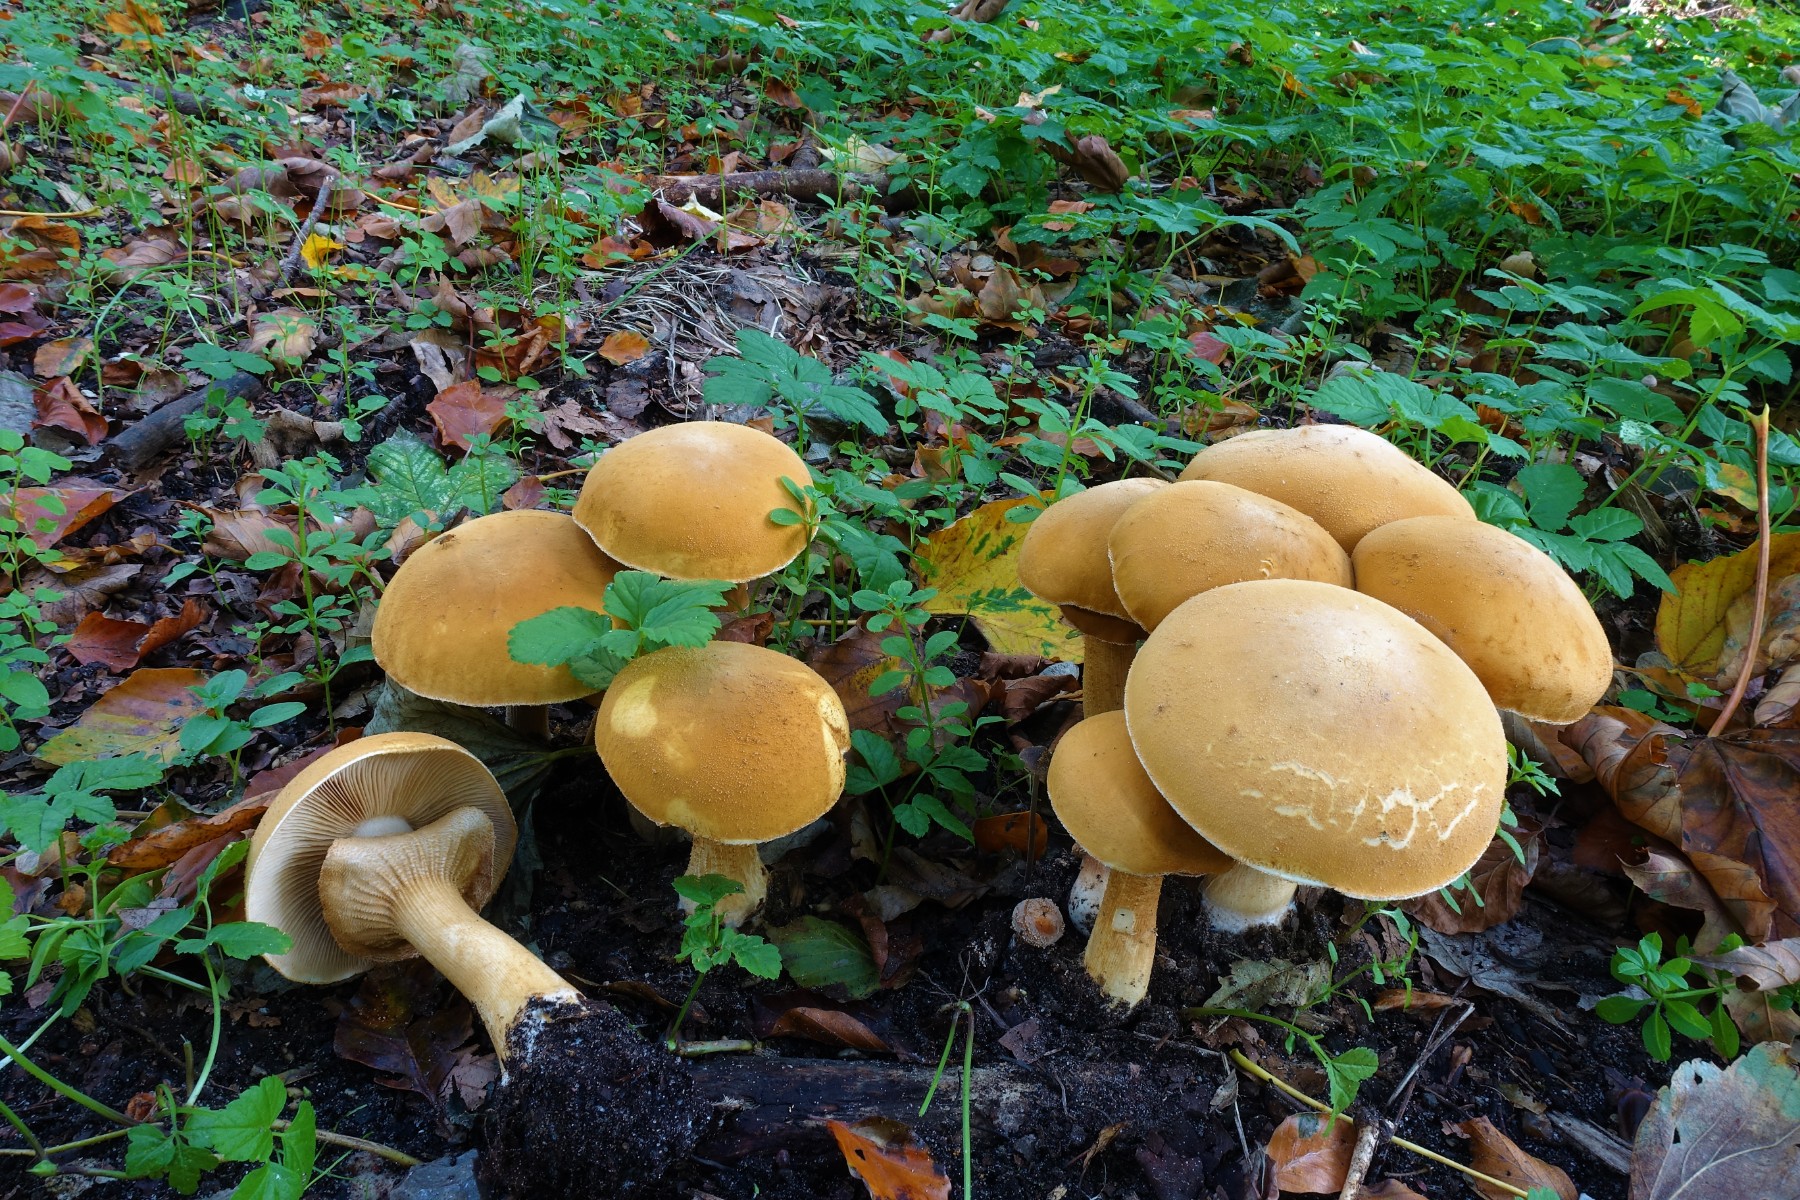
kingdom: Fungi
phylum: Basidiomycota
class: Agaricomycetes
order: Agaricales
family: Tricholomataceae
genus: Phaeolepiota
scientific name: Phaeolepiota aurea
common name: gyldenhat
